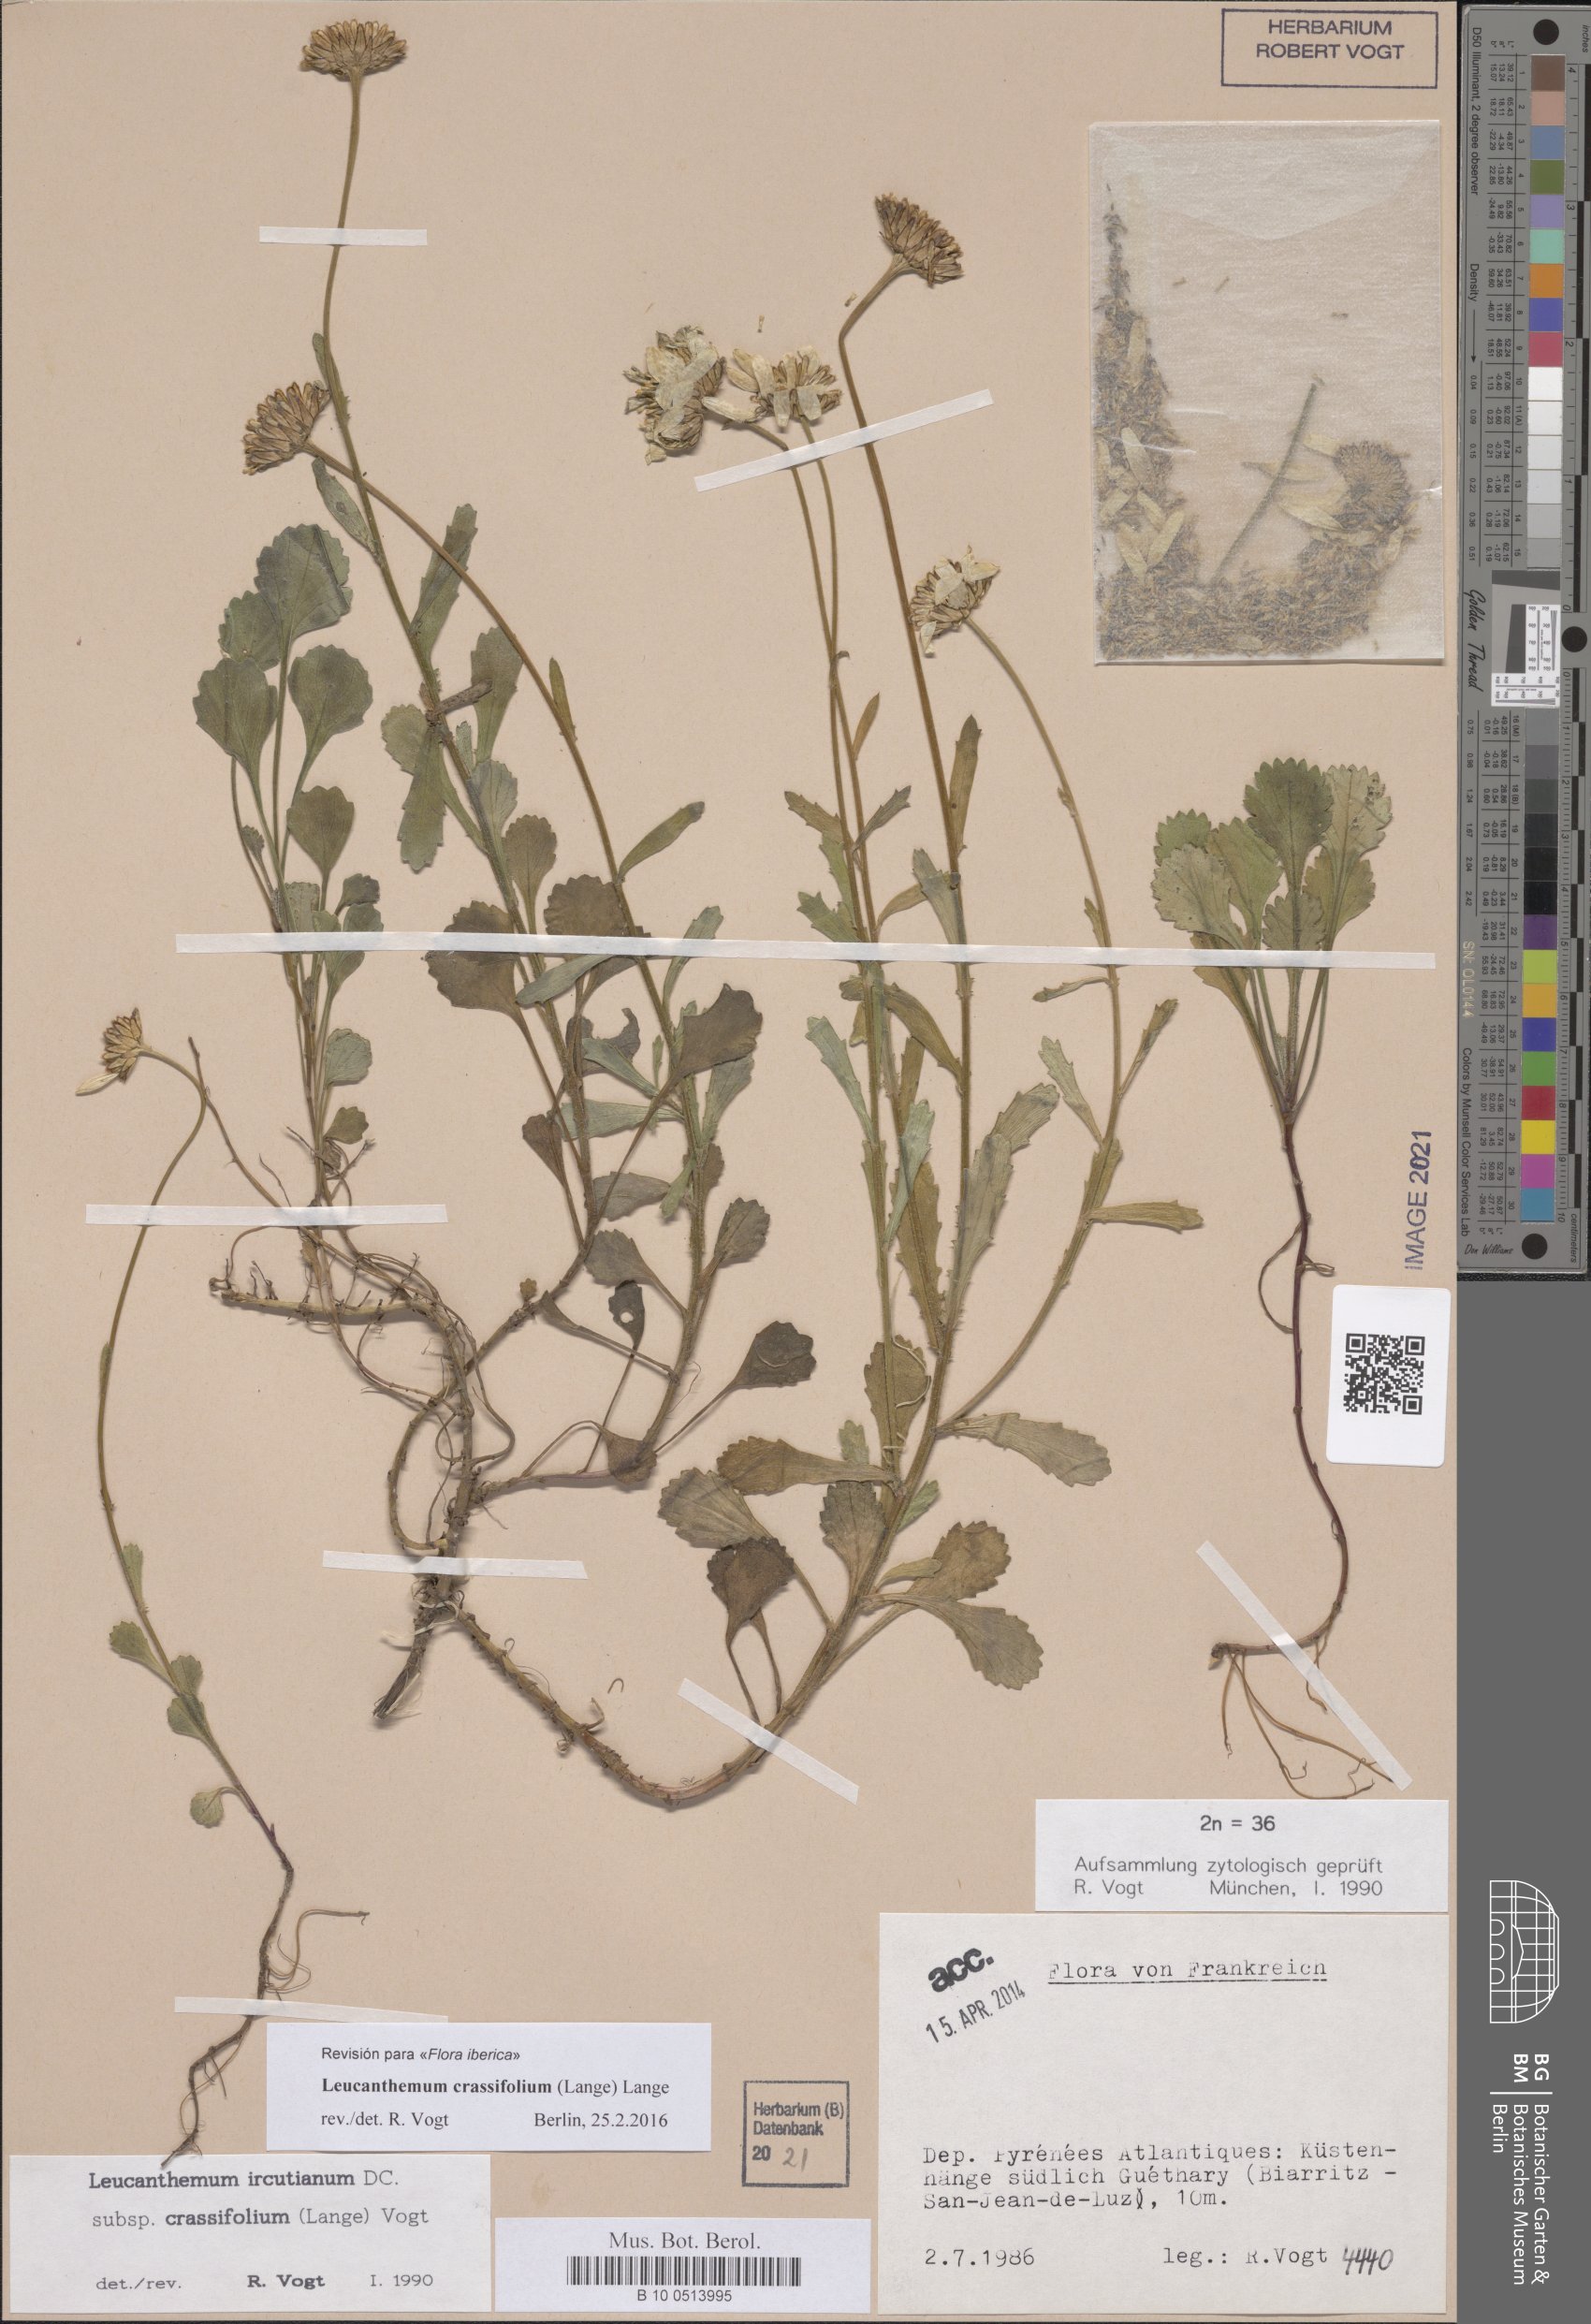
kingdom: Plantae
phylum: Tracheophyta
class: Magnoliopsida
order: Asterales
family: Asteraceae
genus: Leucanthemum
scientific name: Leucanthemum crassifolium
